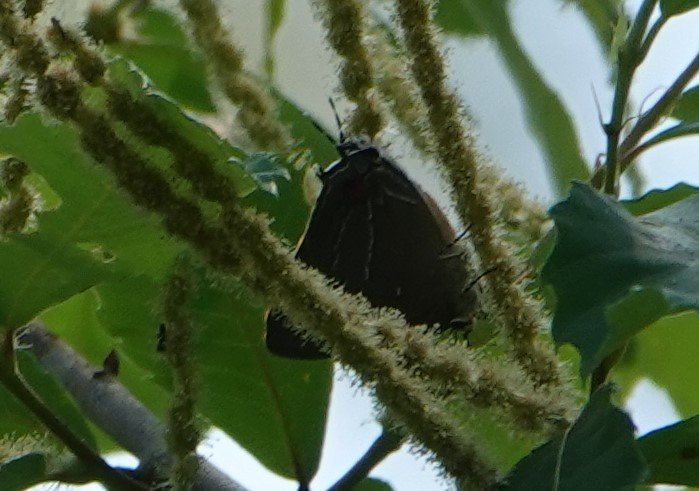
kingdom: Animalia
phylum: Arthropoda
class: Insecta
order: Lepidoptera
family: Lycaenidae
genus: Parrhasius
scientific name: Parrhasius m-album
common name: White-m Hairstreak
